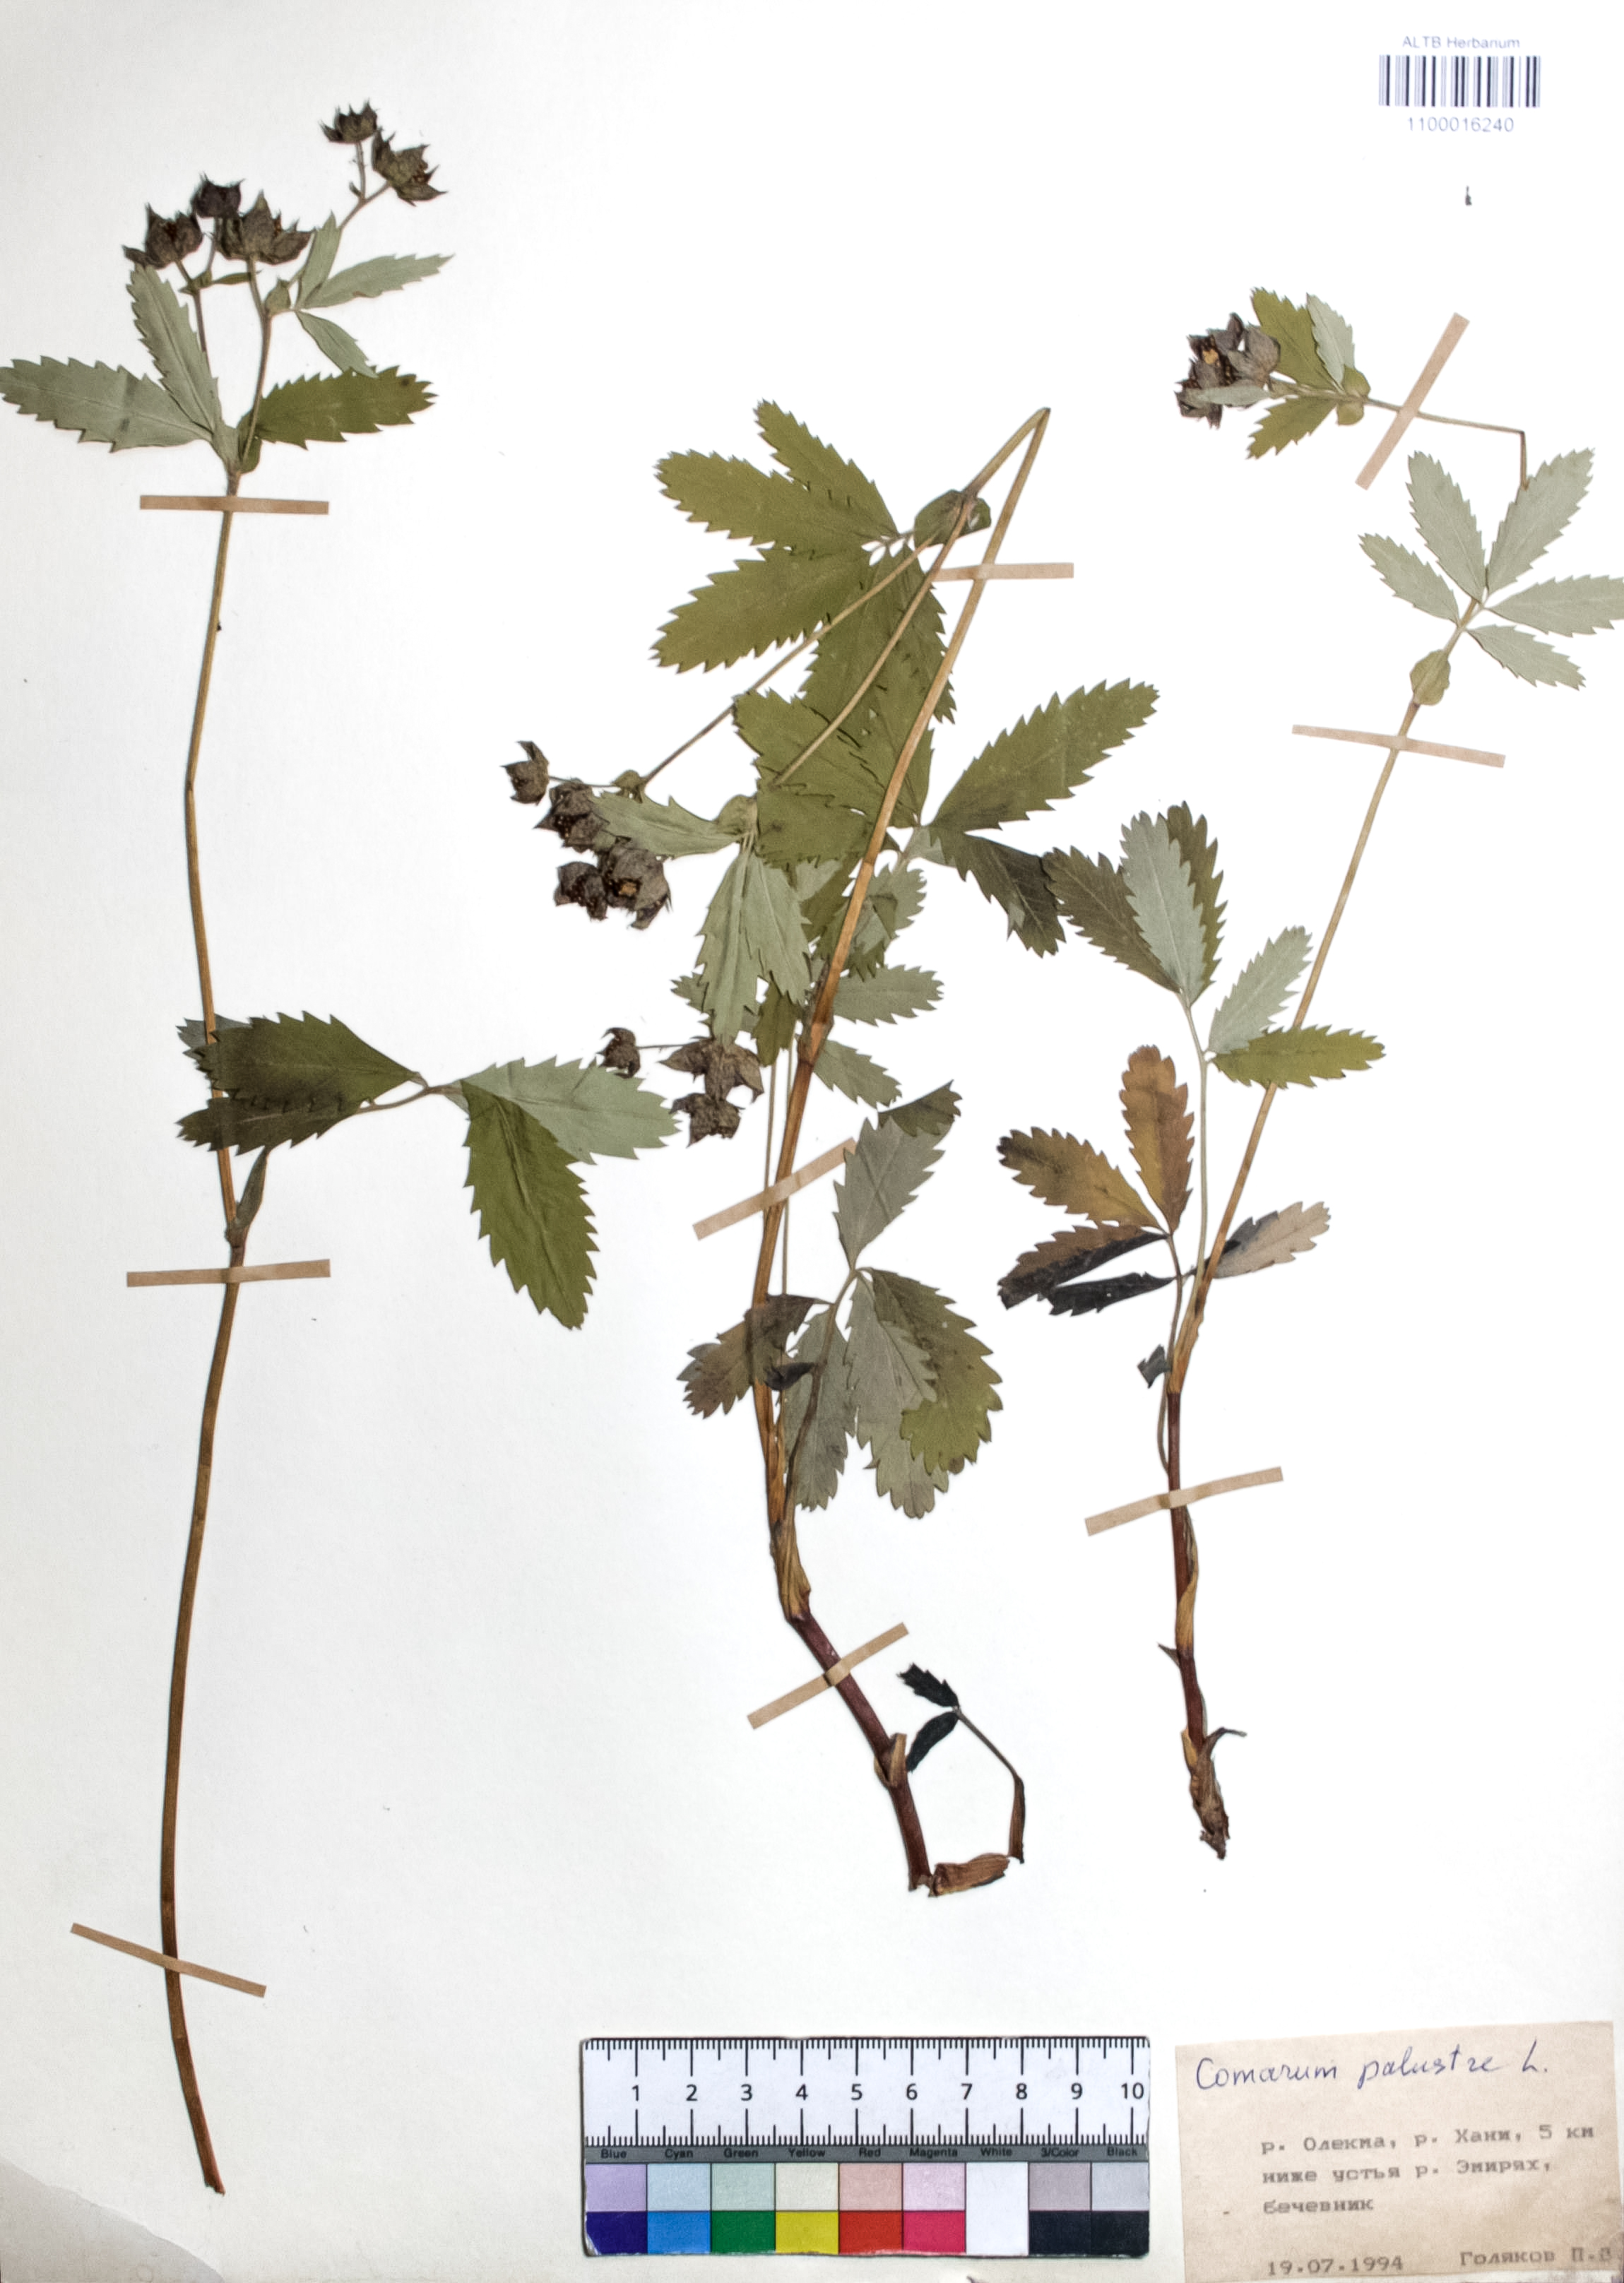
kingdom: Plantae
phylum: Tracheophyta
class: Magnoliopsida
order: Rosales
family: Rosaceae
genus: Comarum
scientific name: Comarum palustre
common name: Marsh cinquefoil
